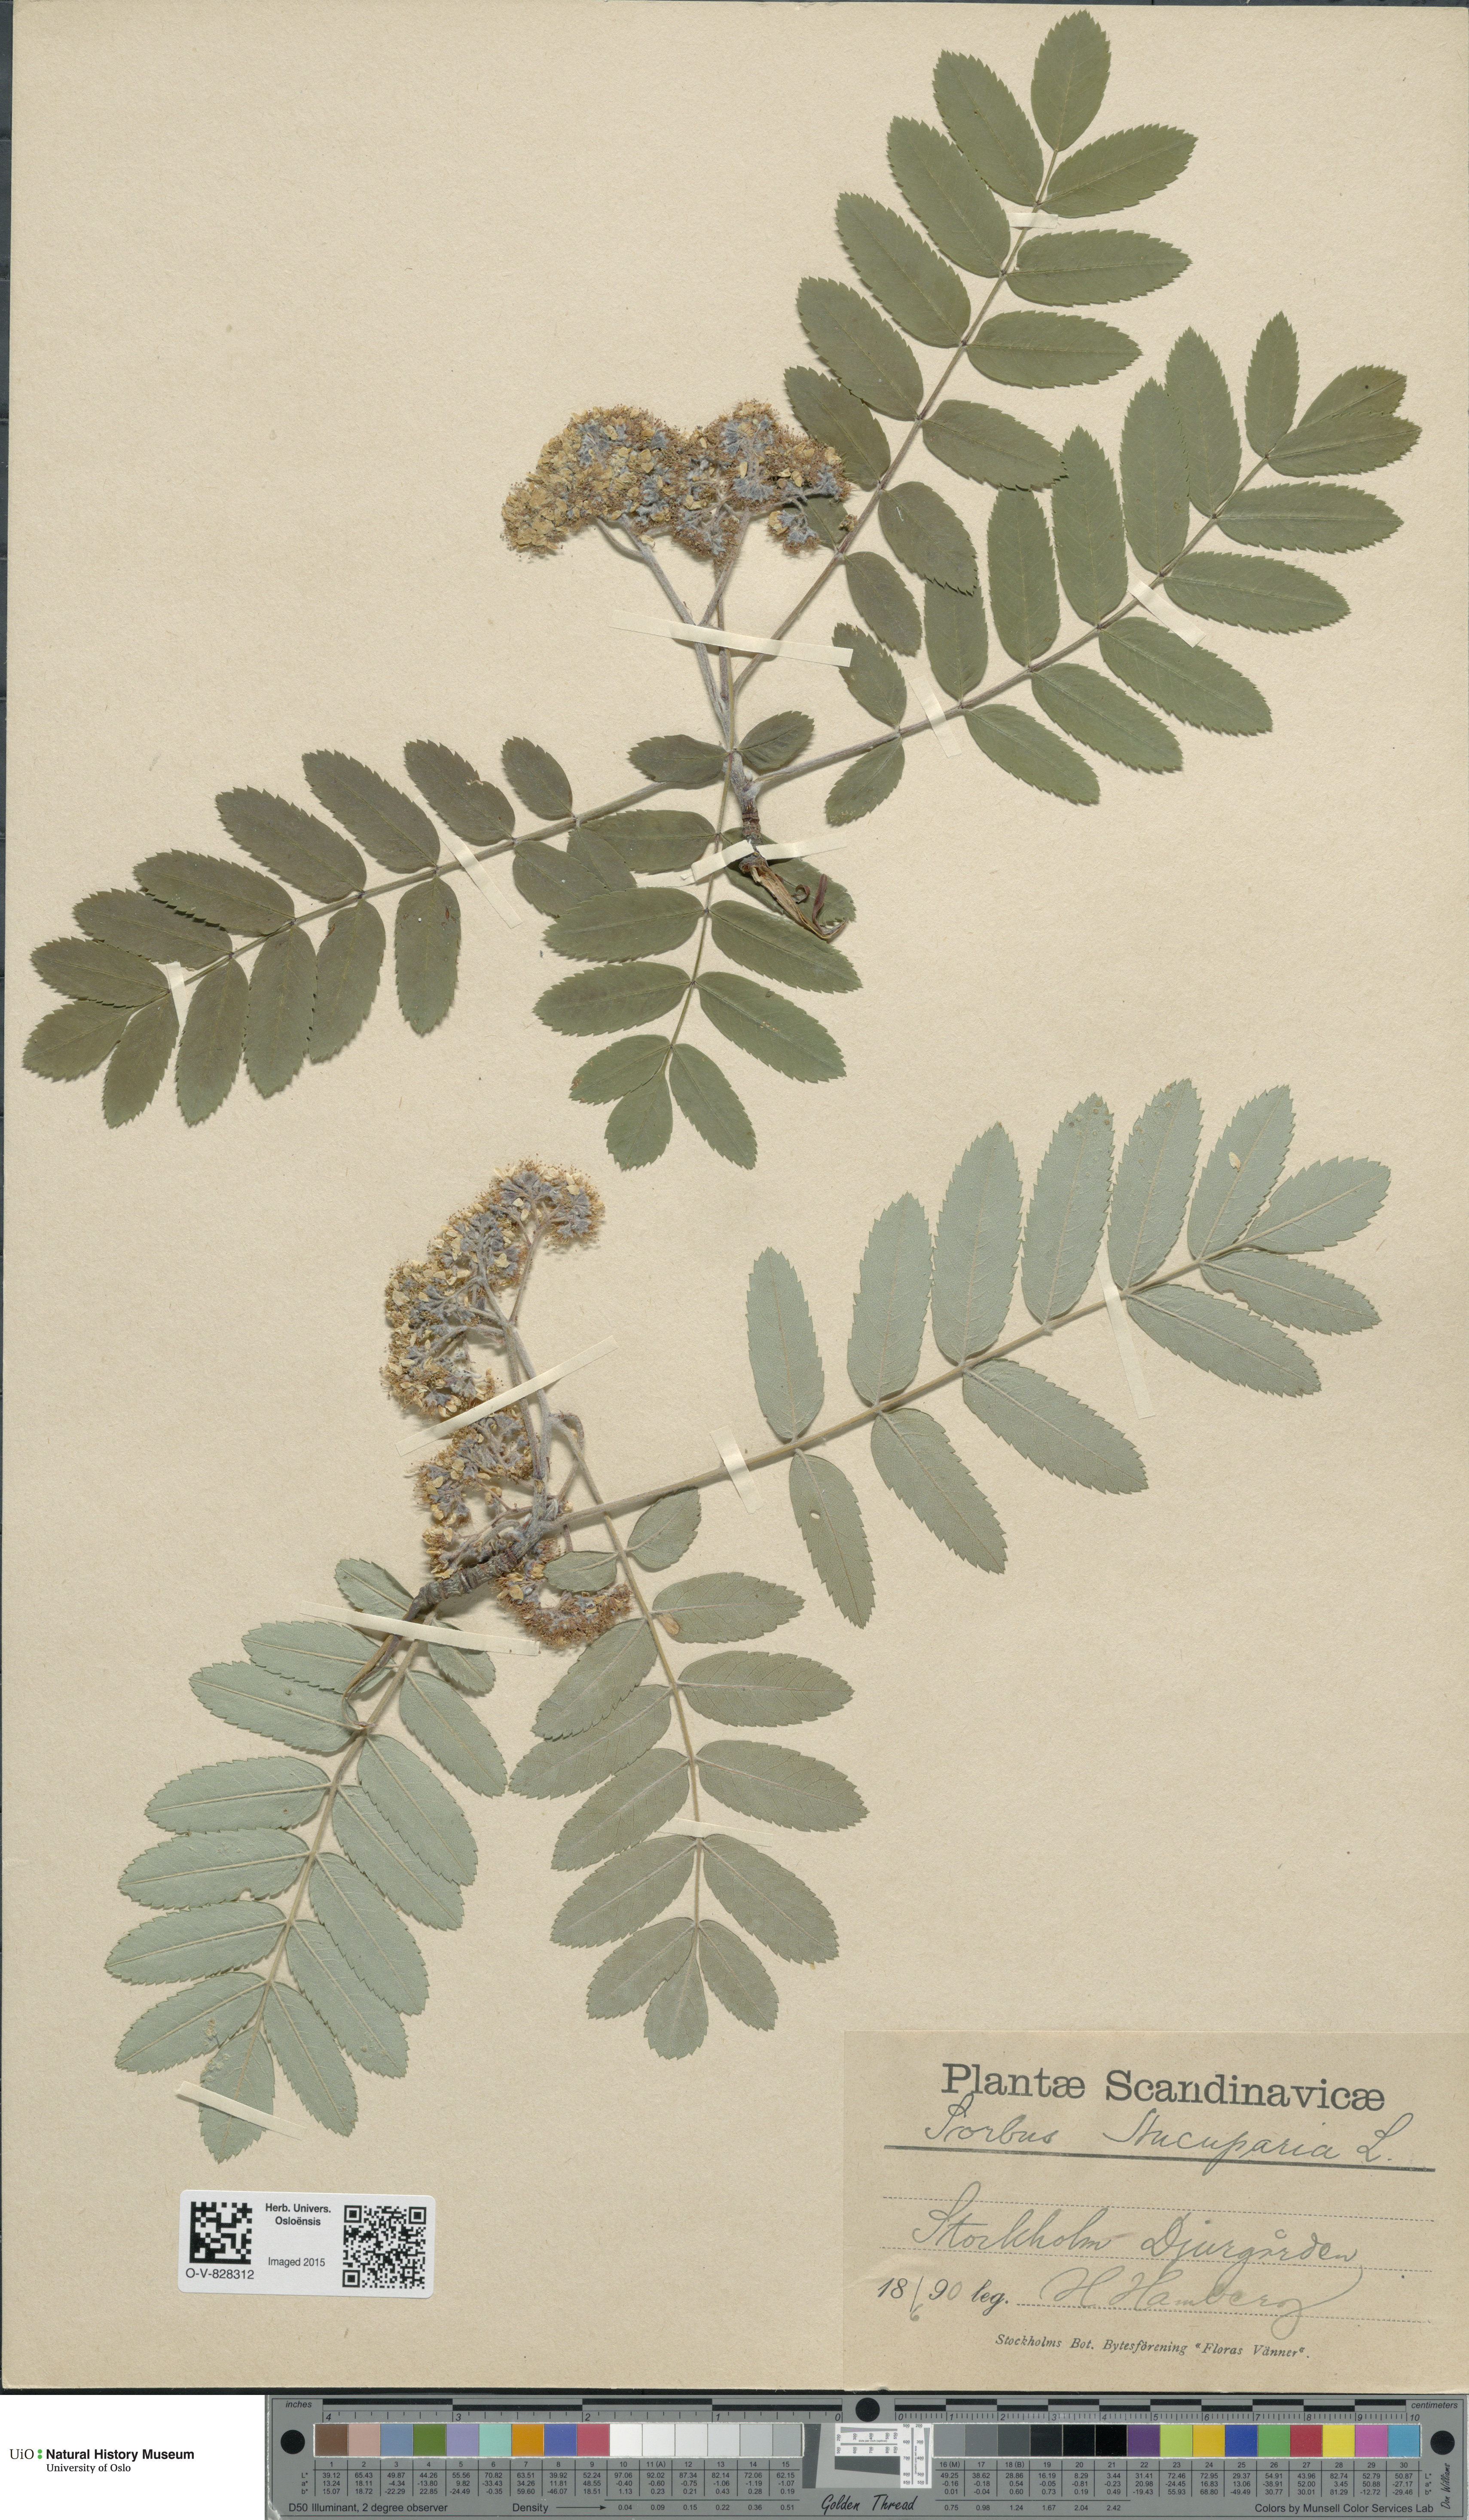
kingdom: Plantae
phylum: Tracheophyta
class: Magnoliopsida
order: Rosales
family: Rosaceae
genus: Sorbus
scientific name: Sorbus aucuparia
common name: Rowan
